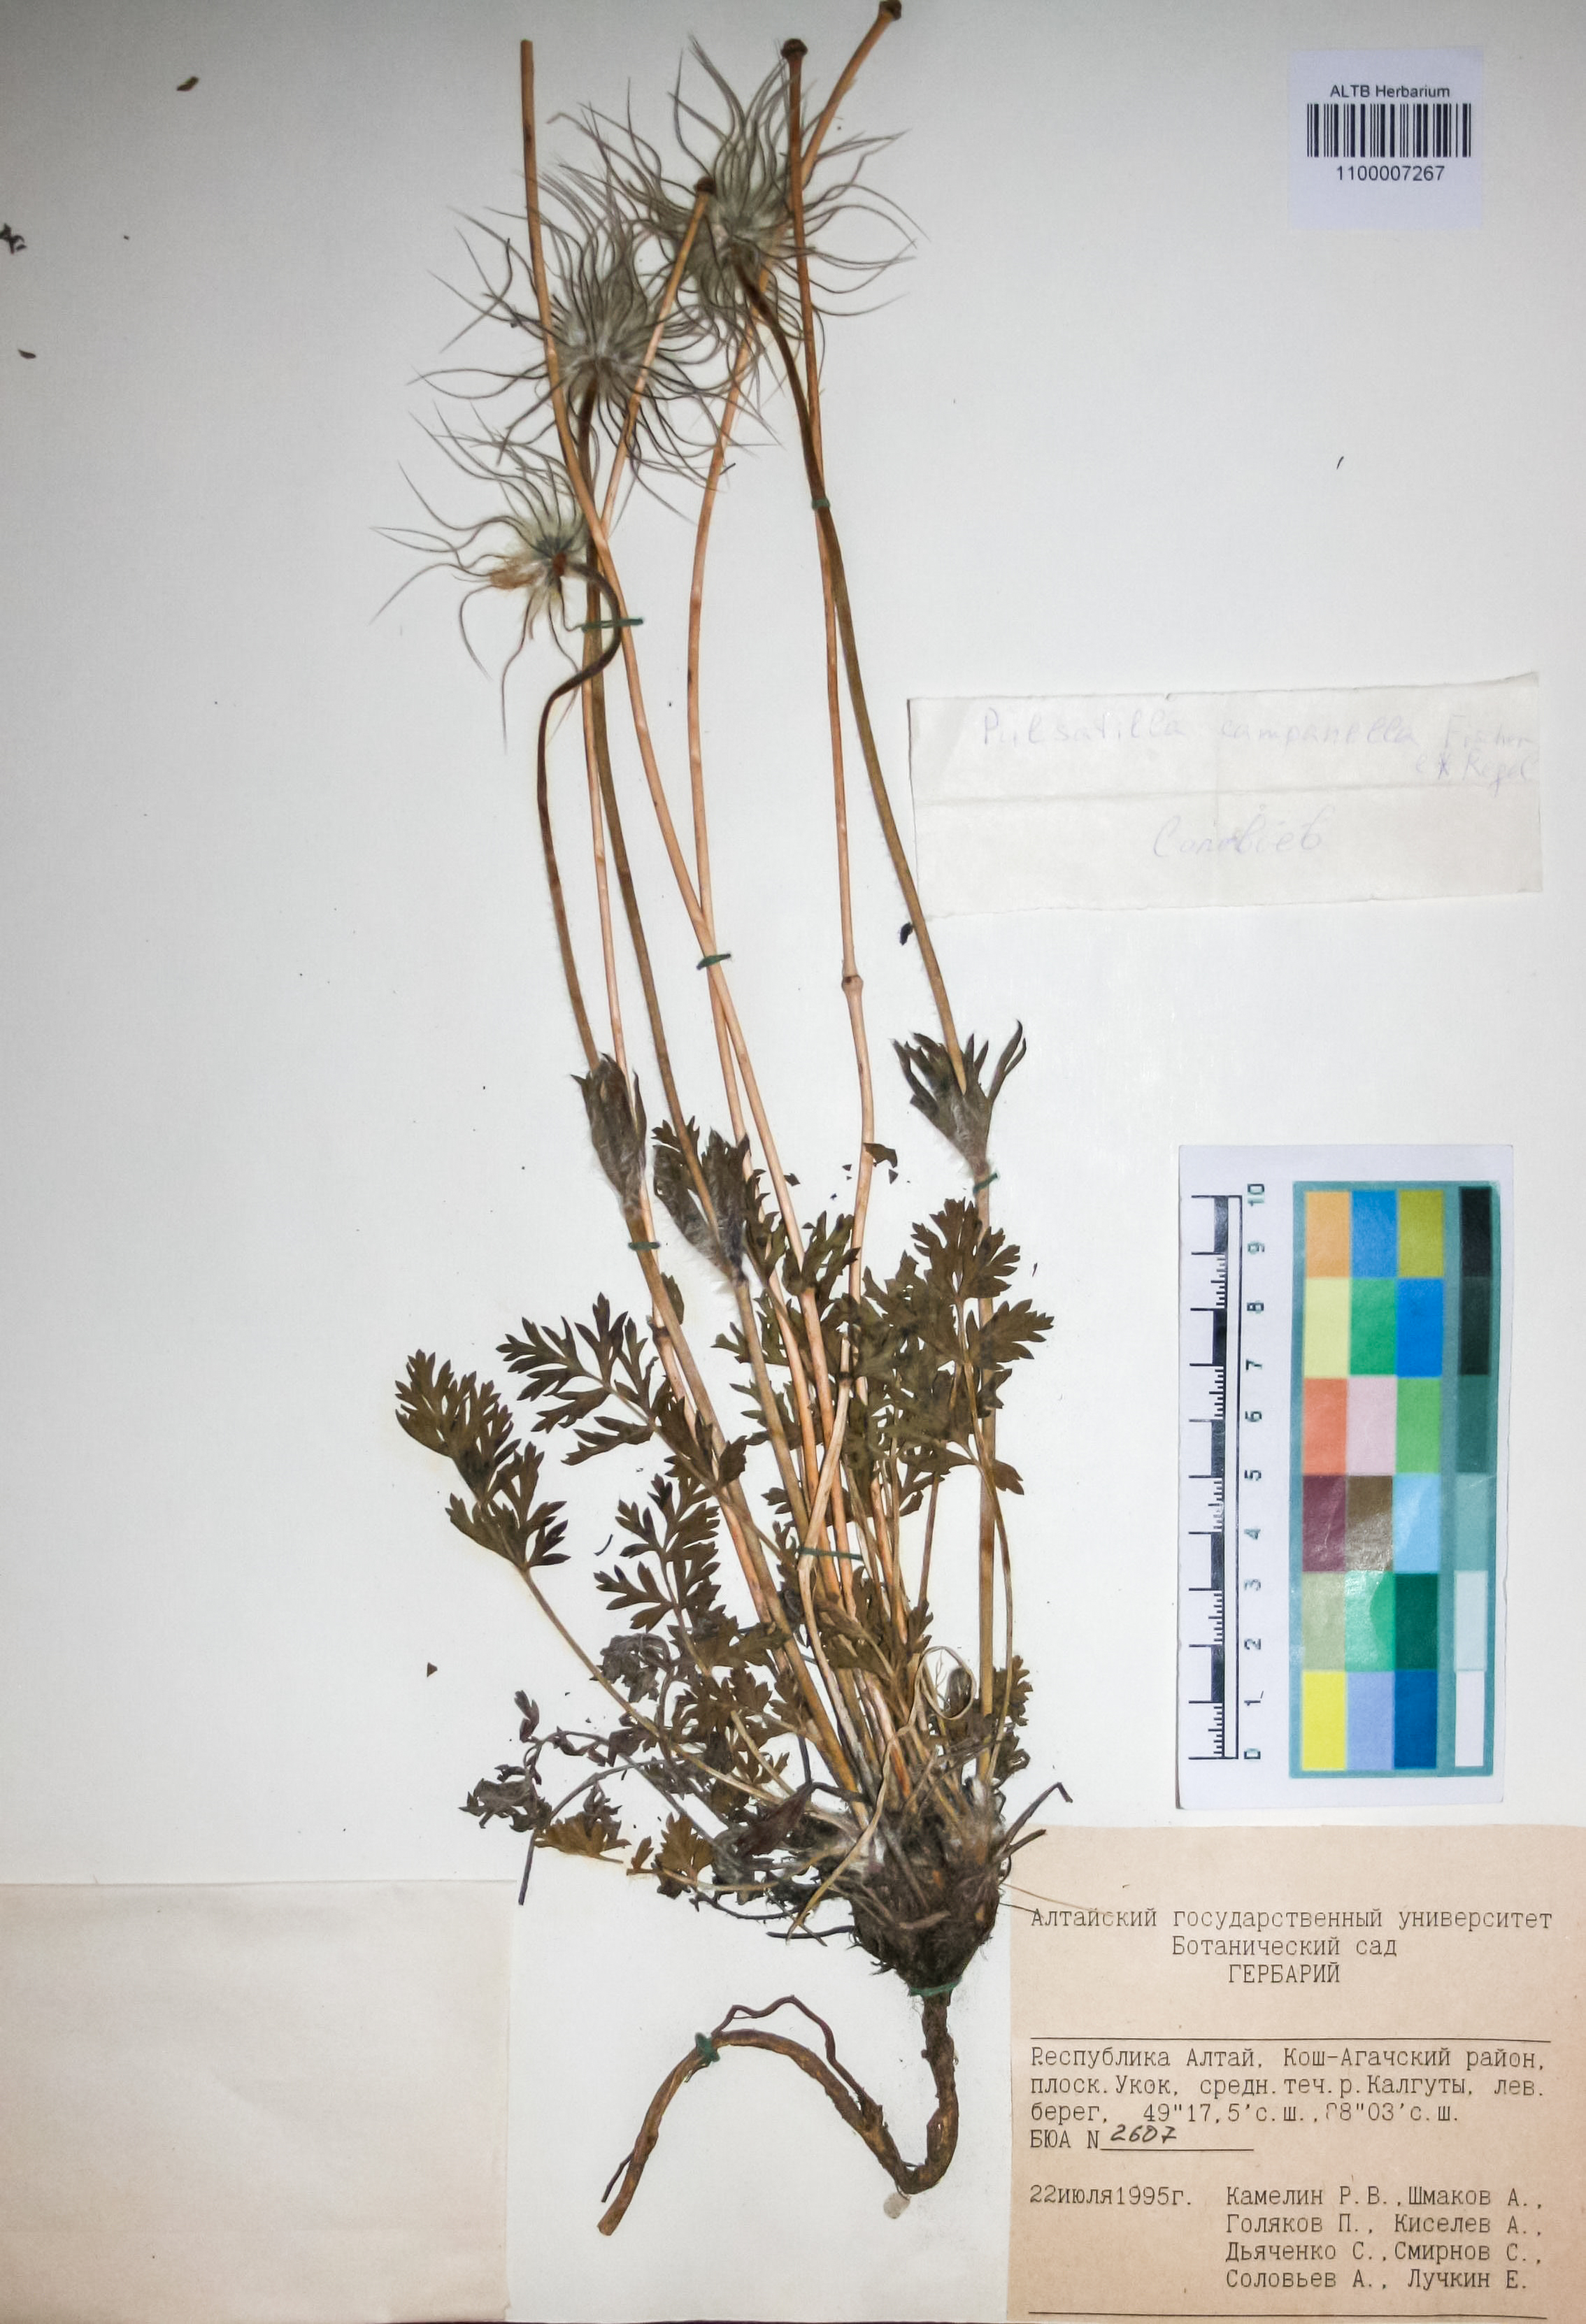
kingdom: Plantae
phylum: Tracheophyta
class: Magnoliopsida
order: Ranunculales
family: Ranunculaceae
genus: Pulsatilla
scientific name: Pulsatilla campanella
